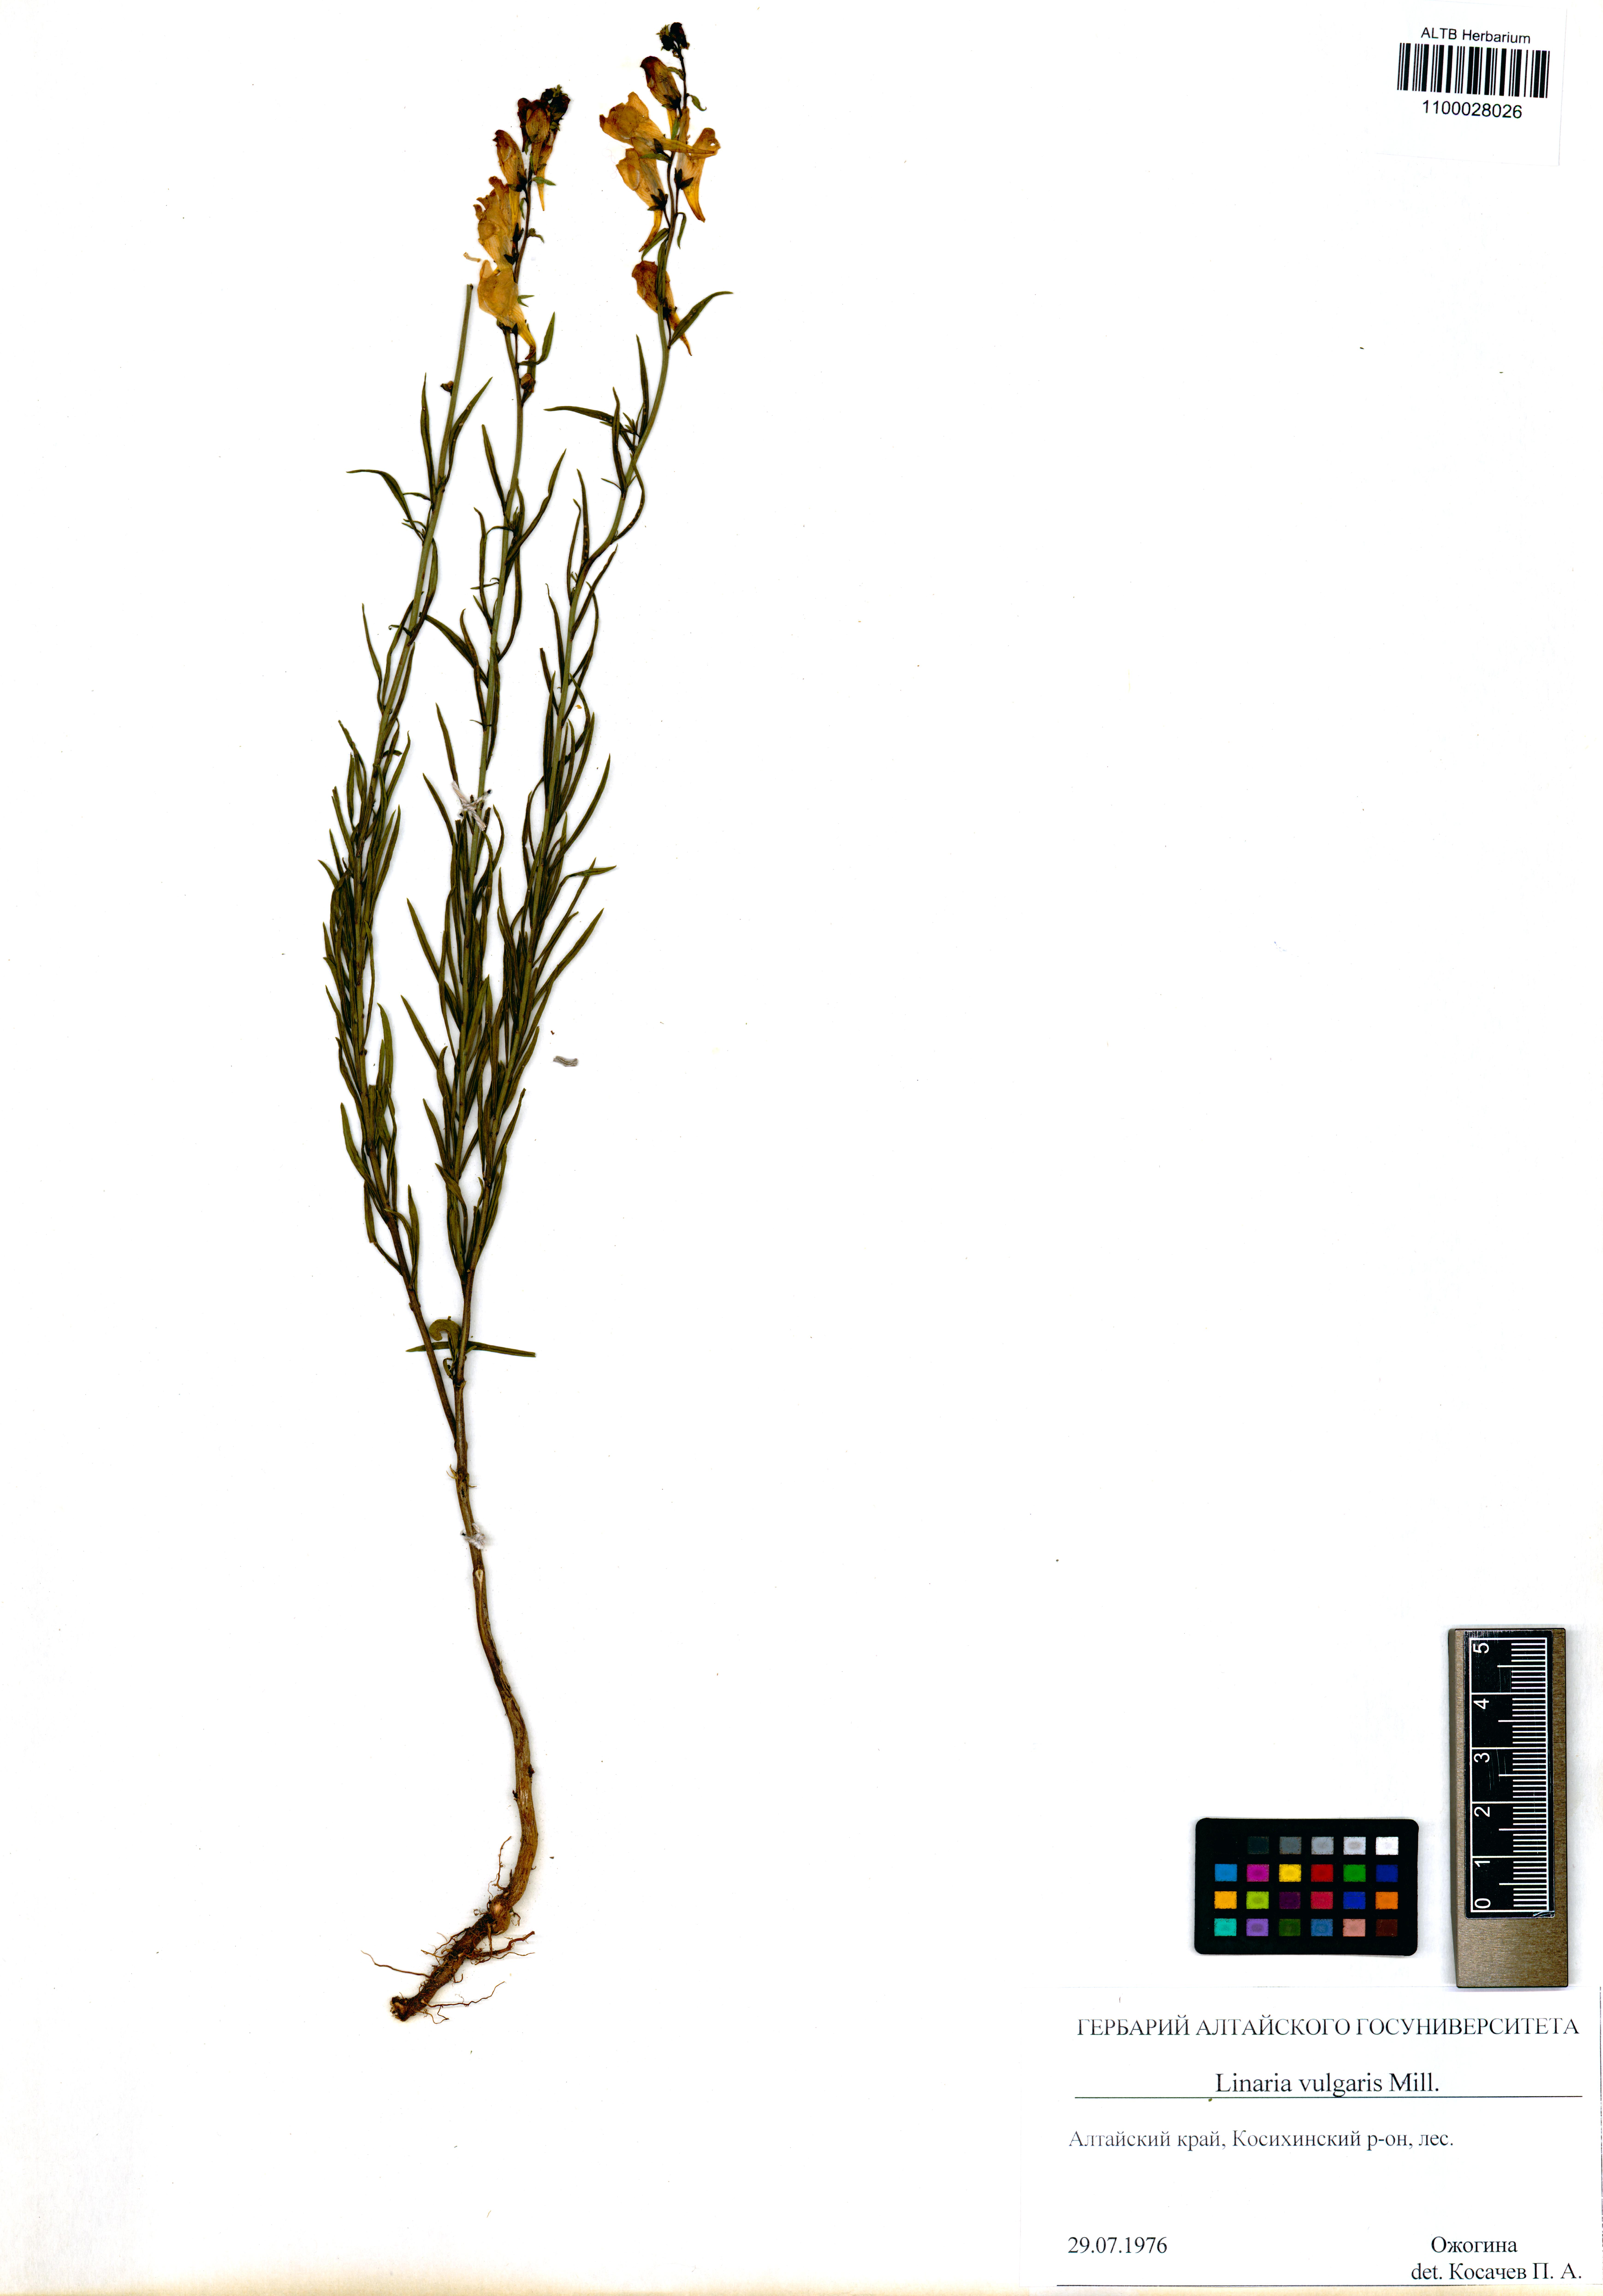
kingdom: Plantae
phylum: Tracheophyta
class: Magnoliopsida
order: Lamiales
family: Plantaginaceae
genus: Linaria
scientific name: Linaria vulgaris
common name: Butter and eggs
